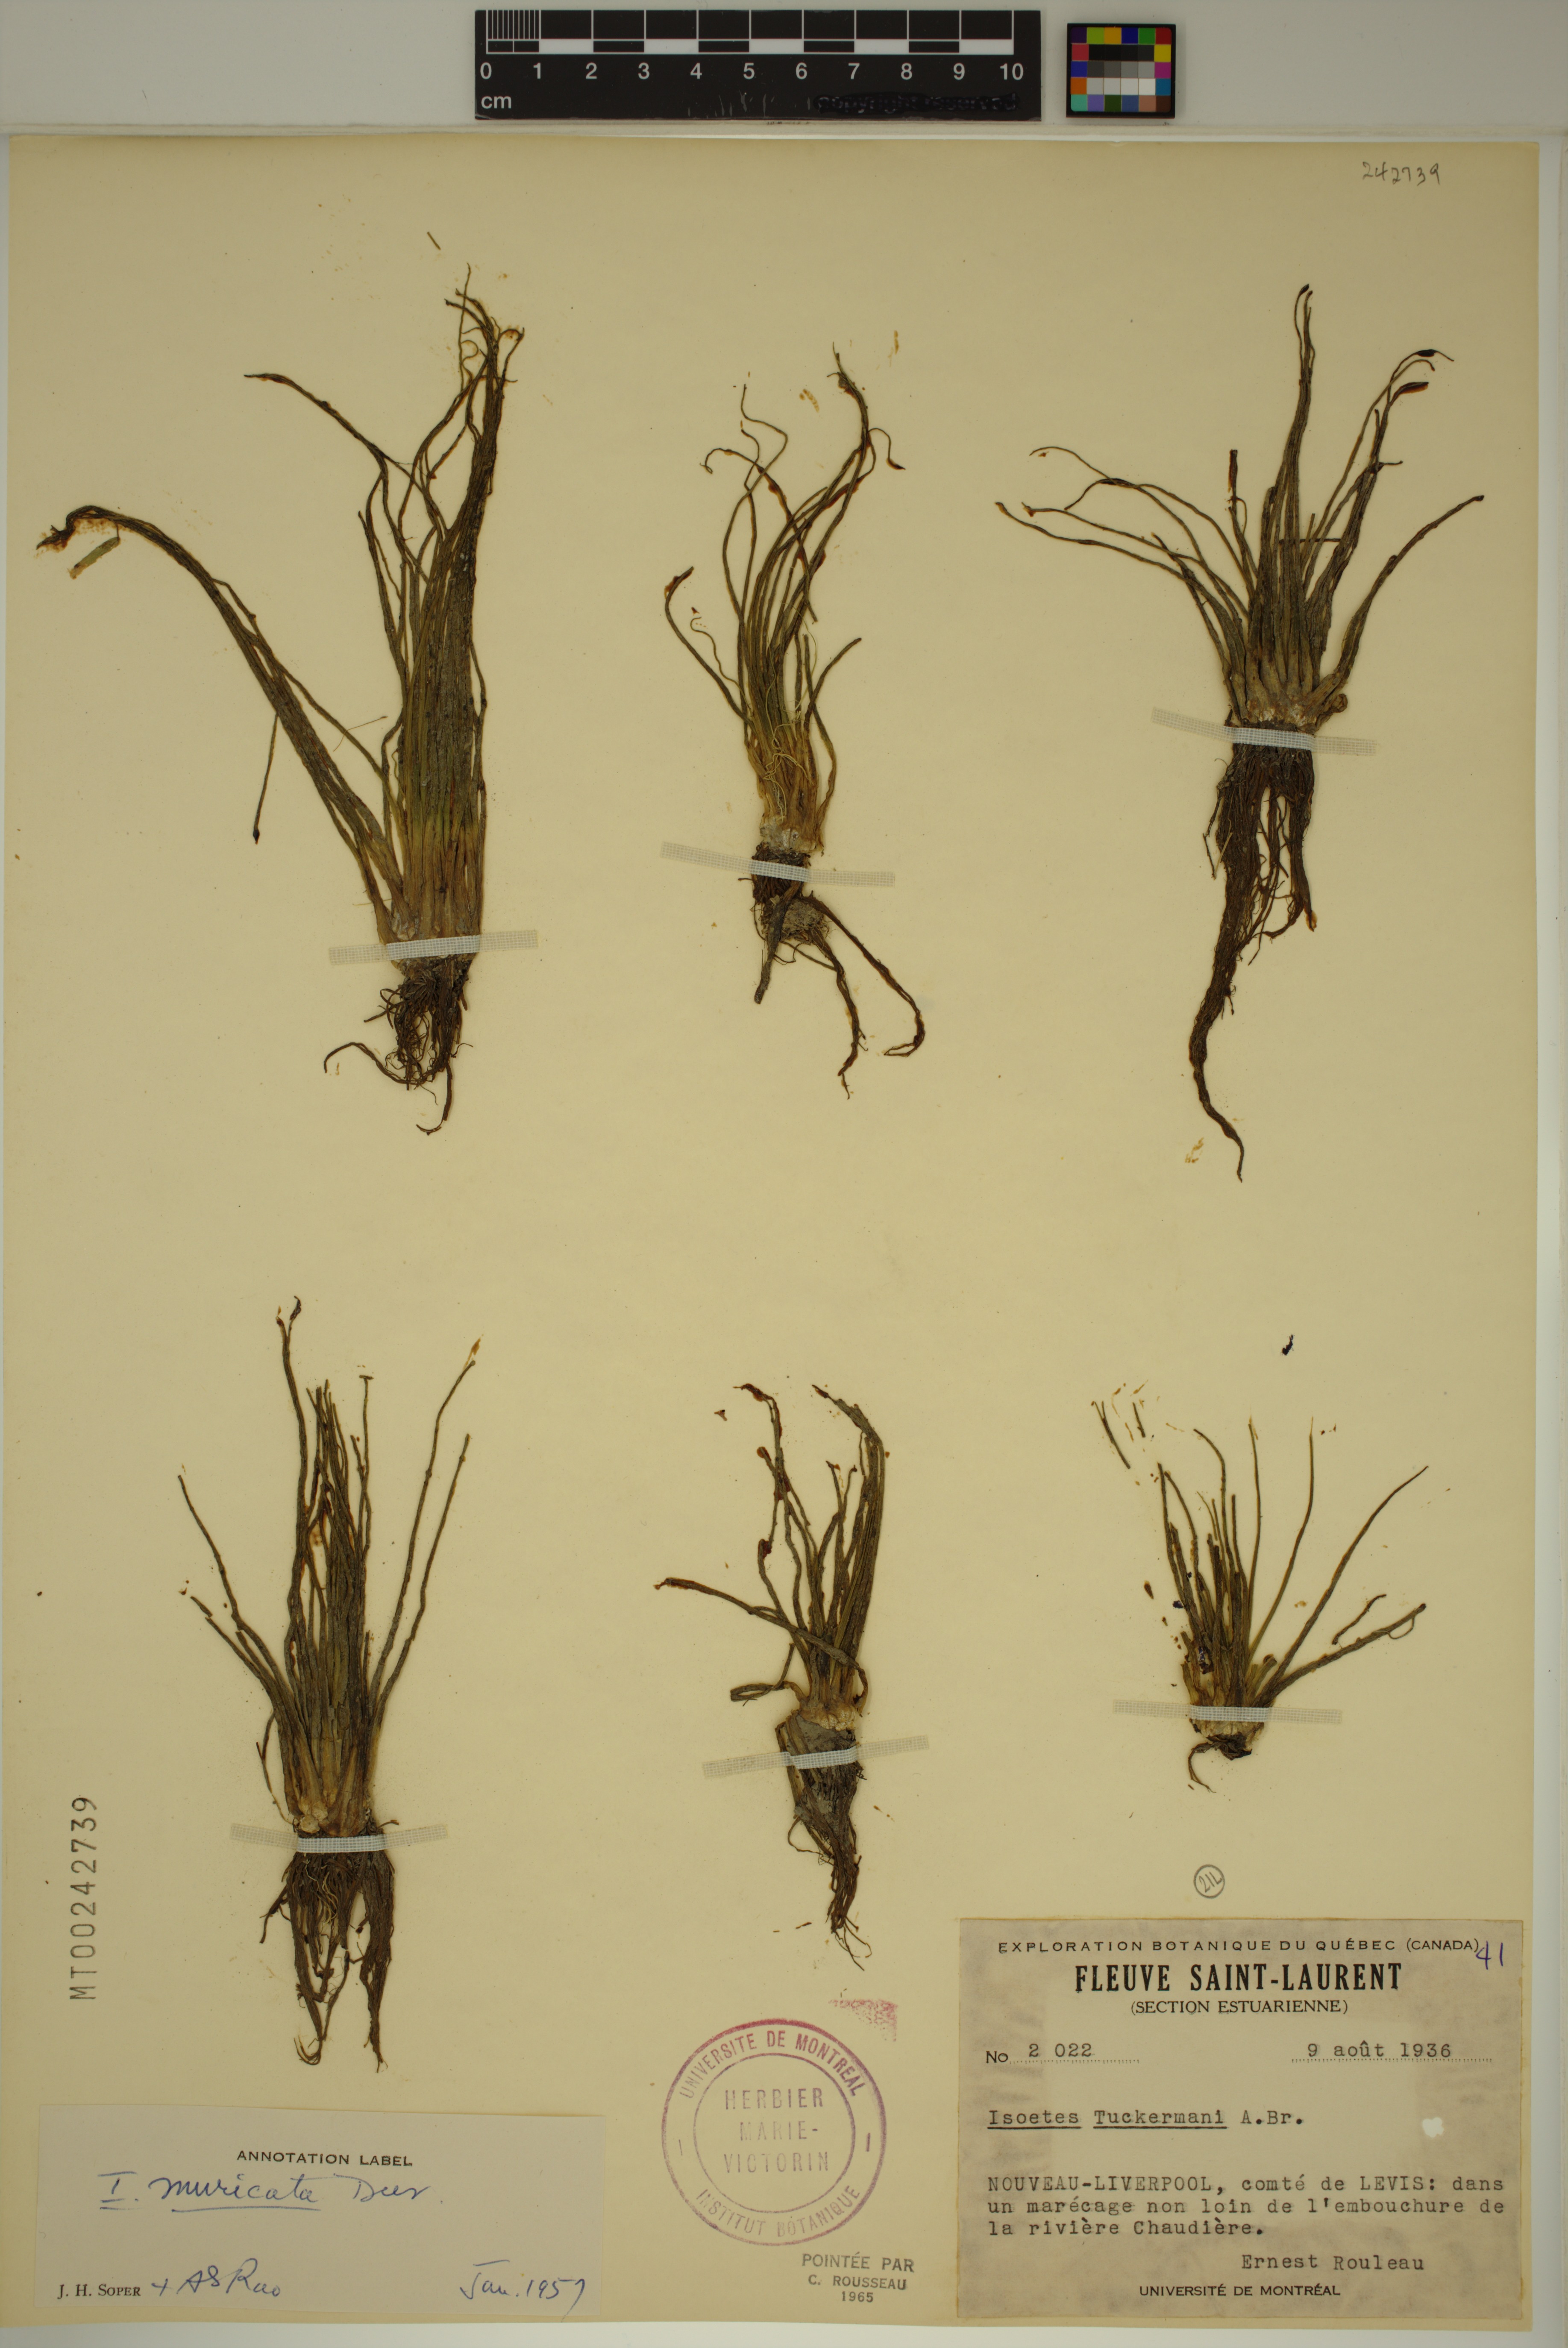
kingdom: Plantae
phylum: Tracheophyta
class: Lycopodiopsida
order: Isoetales
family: Isoetaceae
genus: Isoetes
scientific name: Isoetes laurentiana
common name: St. lawrence quillwort
